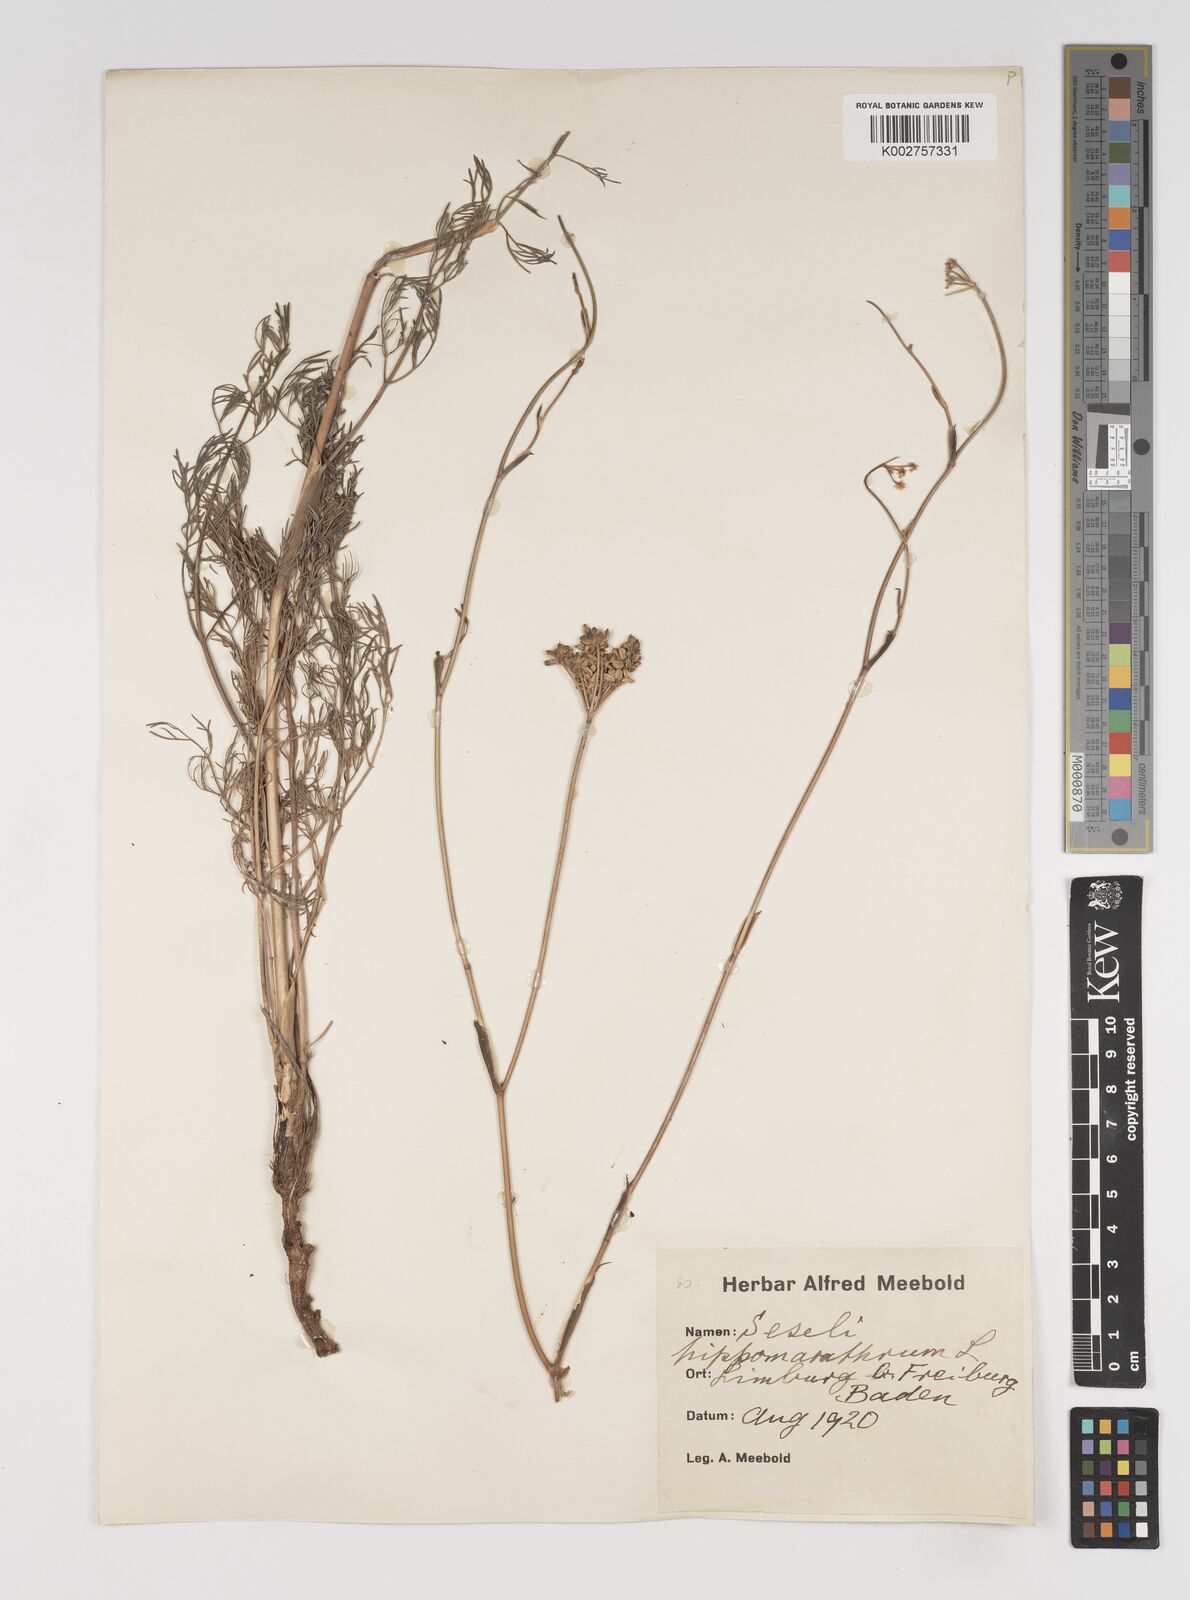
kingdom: Plantae
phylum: Tracheophyta
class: Magnoliopsida
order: Apiales
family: Apiaceae
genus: Hippomarathrum
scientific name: Hippomarathrum vulgare
